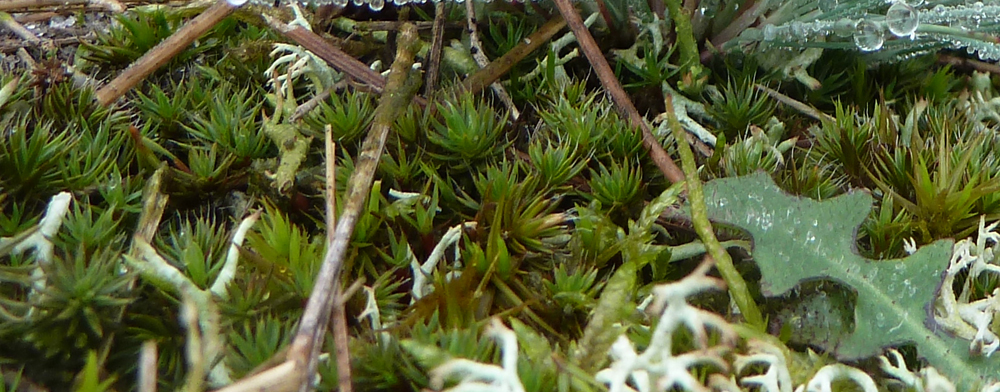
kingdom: Plantae
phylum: Bryophyta
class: Polytrichopsida
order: Polytrichales
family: Polytrichaceae
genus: Polytrichum
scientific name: Polytrichum piliferum
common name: Bristly haircap
